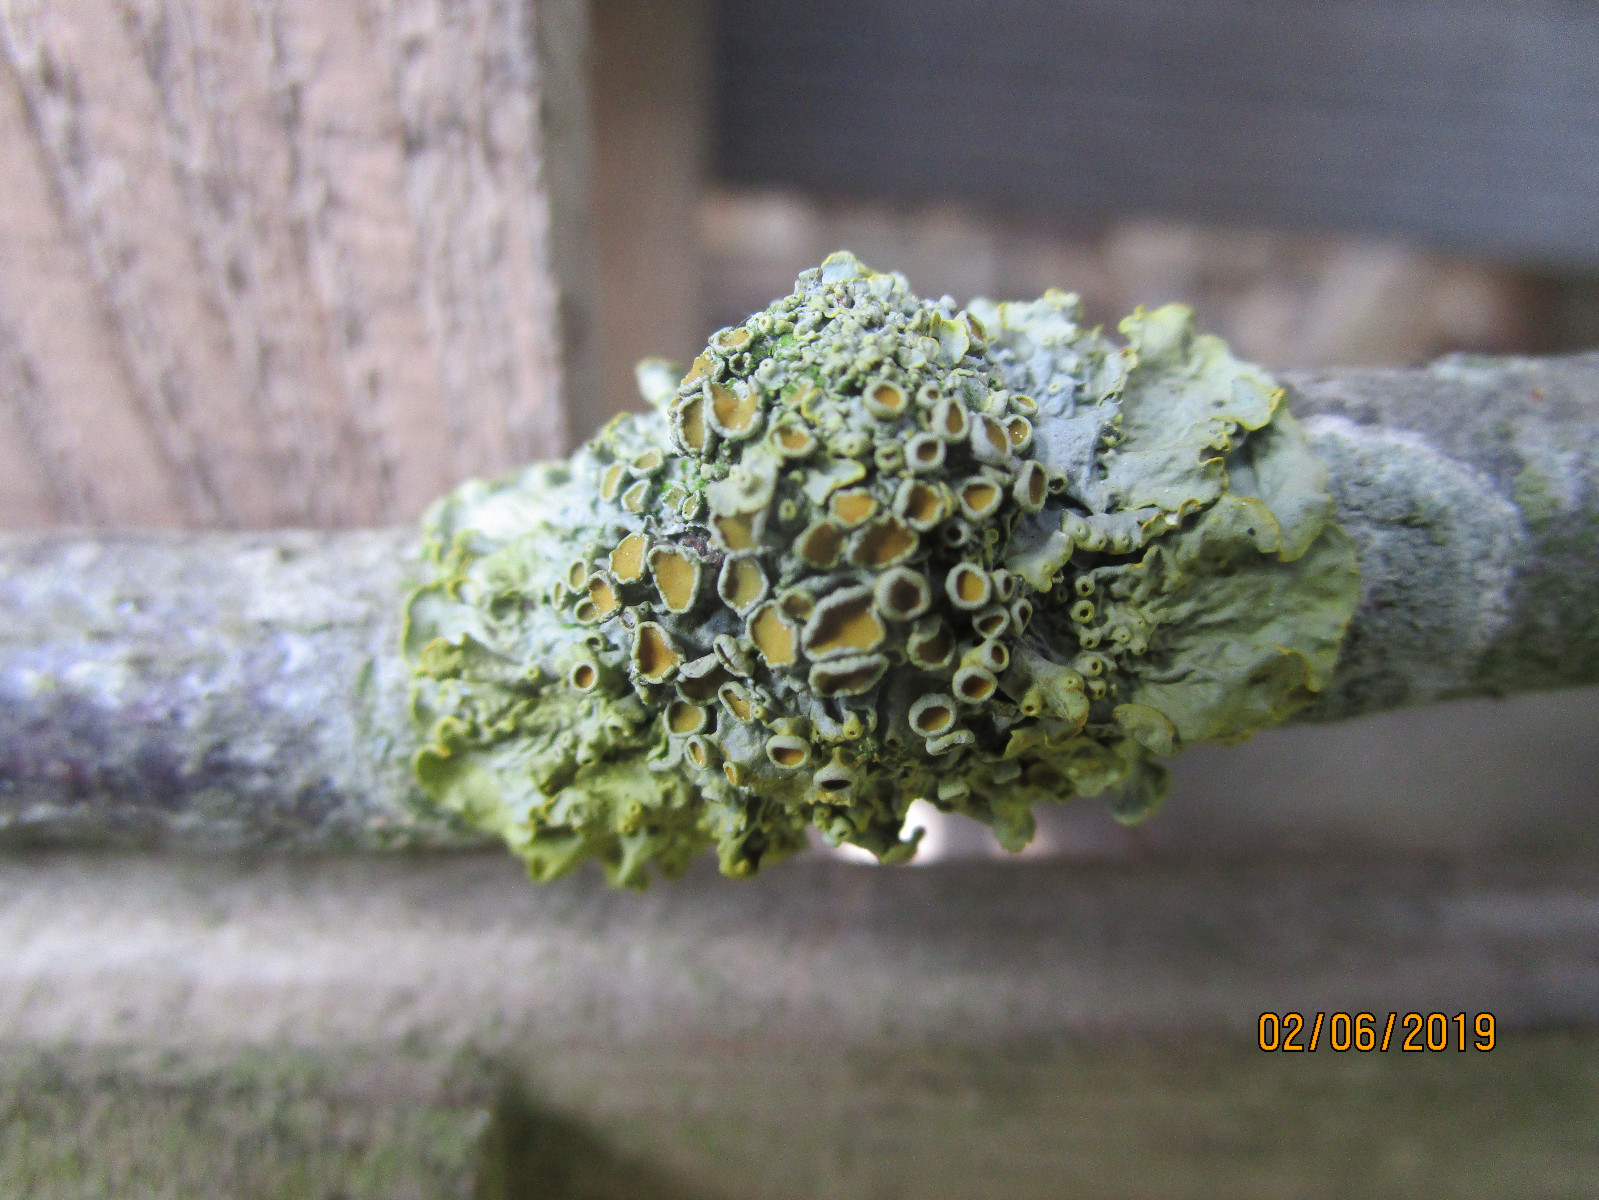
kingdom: Fungi
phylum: Ascomycota
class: Lecanoromycetes
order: Teloschistales
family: Teloschistaceae
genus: Xanthoria
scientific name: Xanthoria parietina
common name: almindelig væggelav
